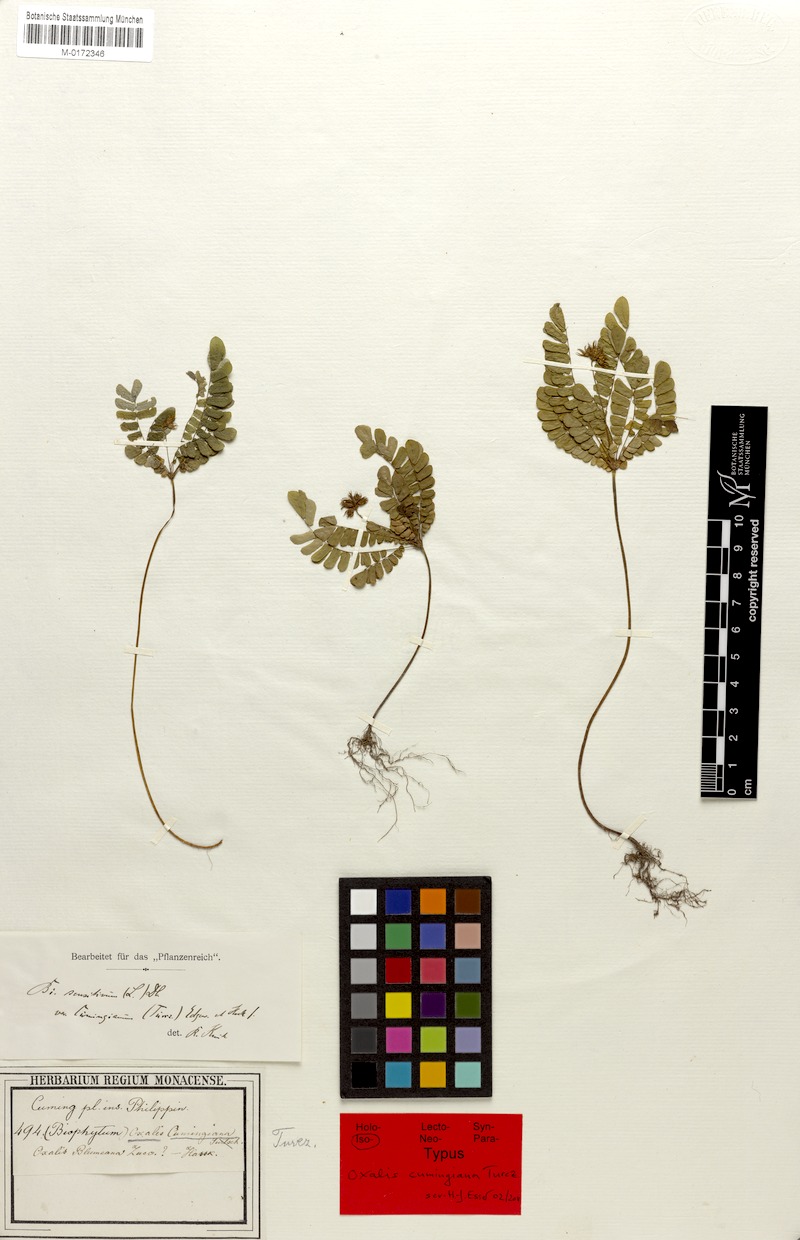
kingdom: Plantae
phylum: Tracheophyta
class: Magnoliopsida
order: Oxalidales
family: Oxalidaceae
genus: Biophytum
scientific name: Biophytum sensitivum
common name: Lifeplant
